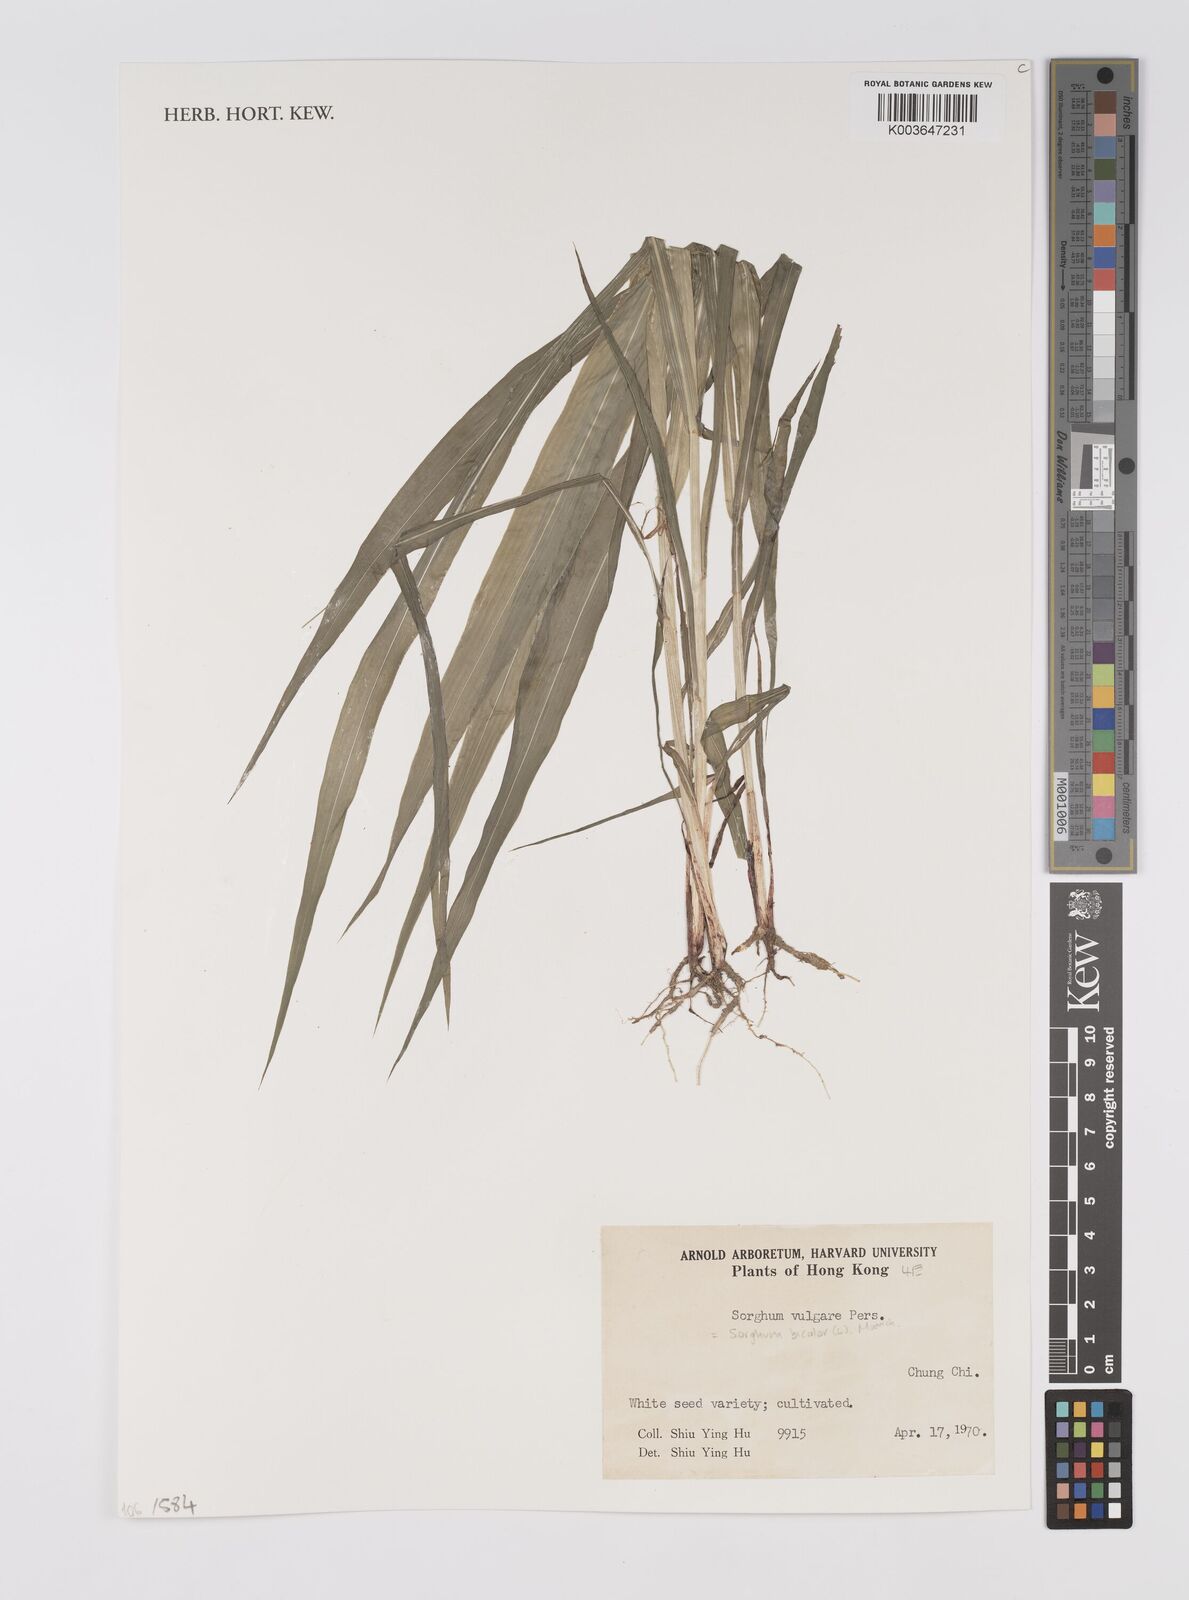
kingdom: Plantae
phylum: Tracheophyta
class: Liliopsida
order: Poales
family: Poaceae
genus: Sorghum
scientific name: Sorghum
